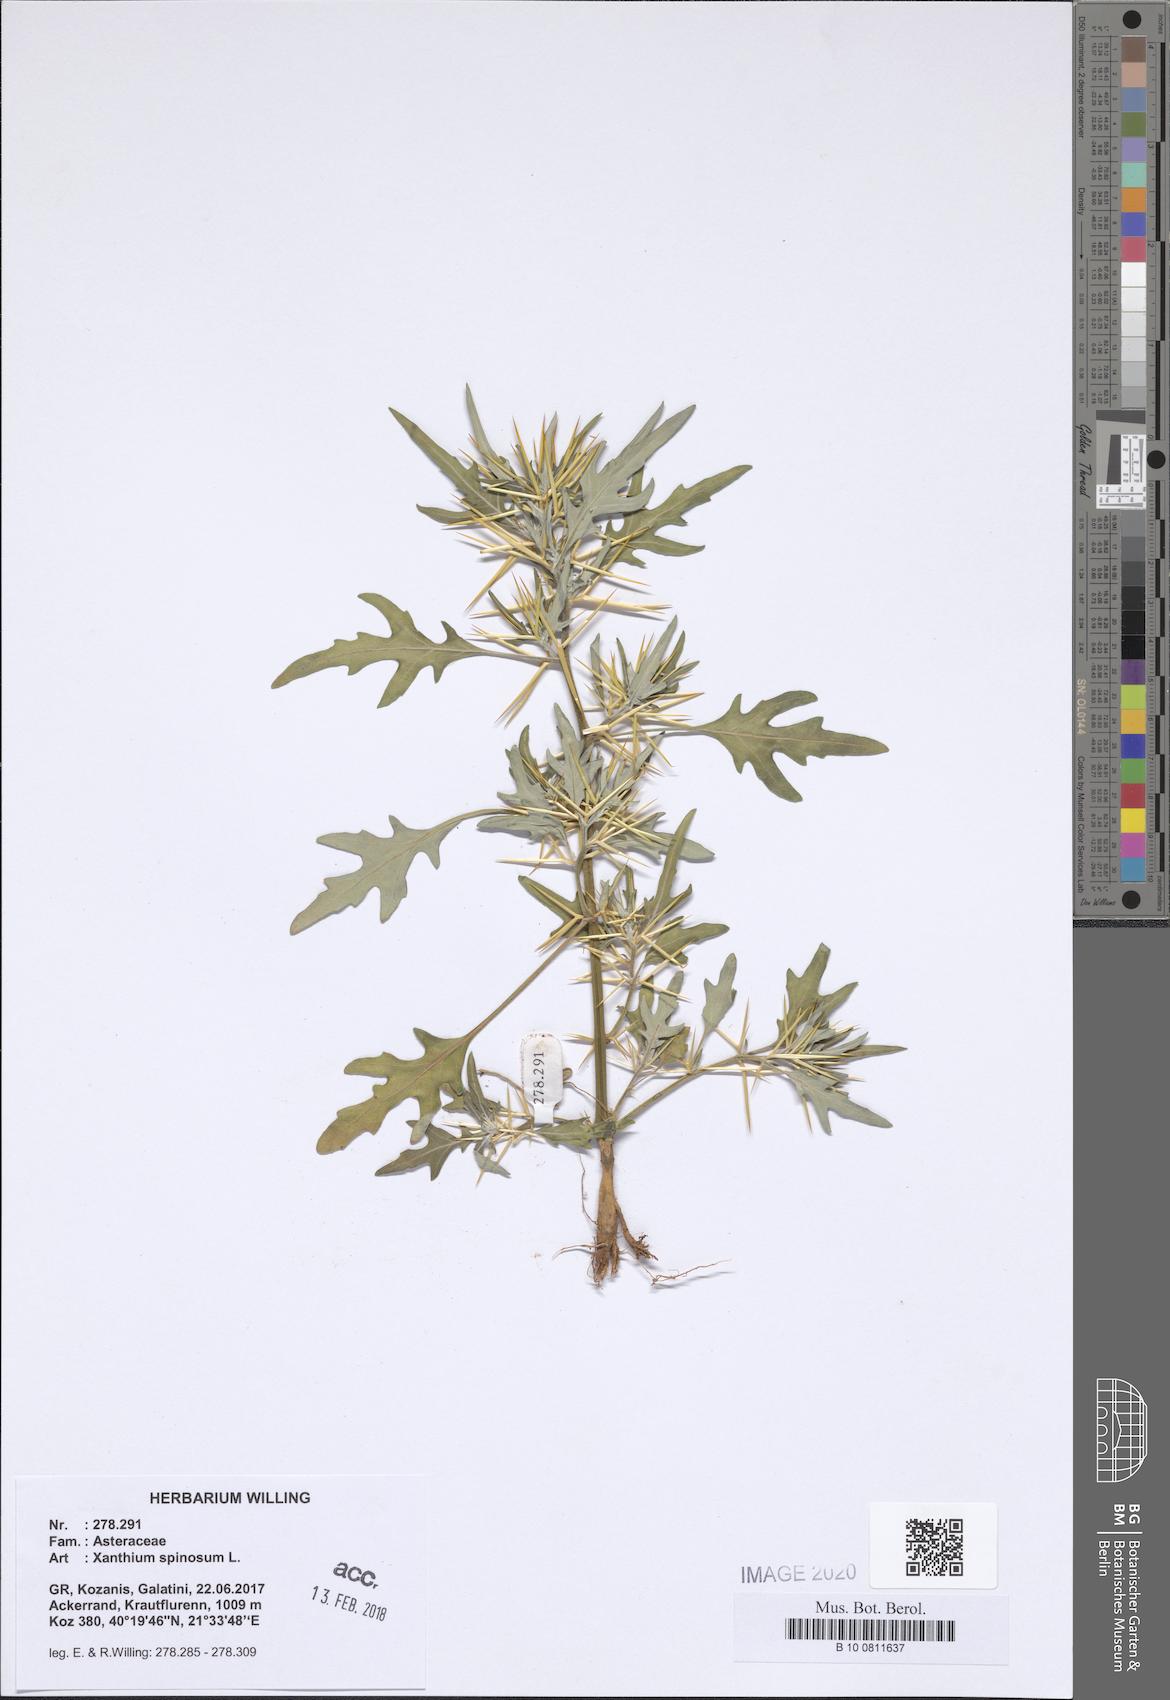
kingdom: Plantae
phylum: Tracheophyta
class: Magnoliopsida
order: Asterales
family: Asteraceae
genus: Xanthium
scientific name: Xanthium spinosum
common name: Spiny cocklebur
